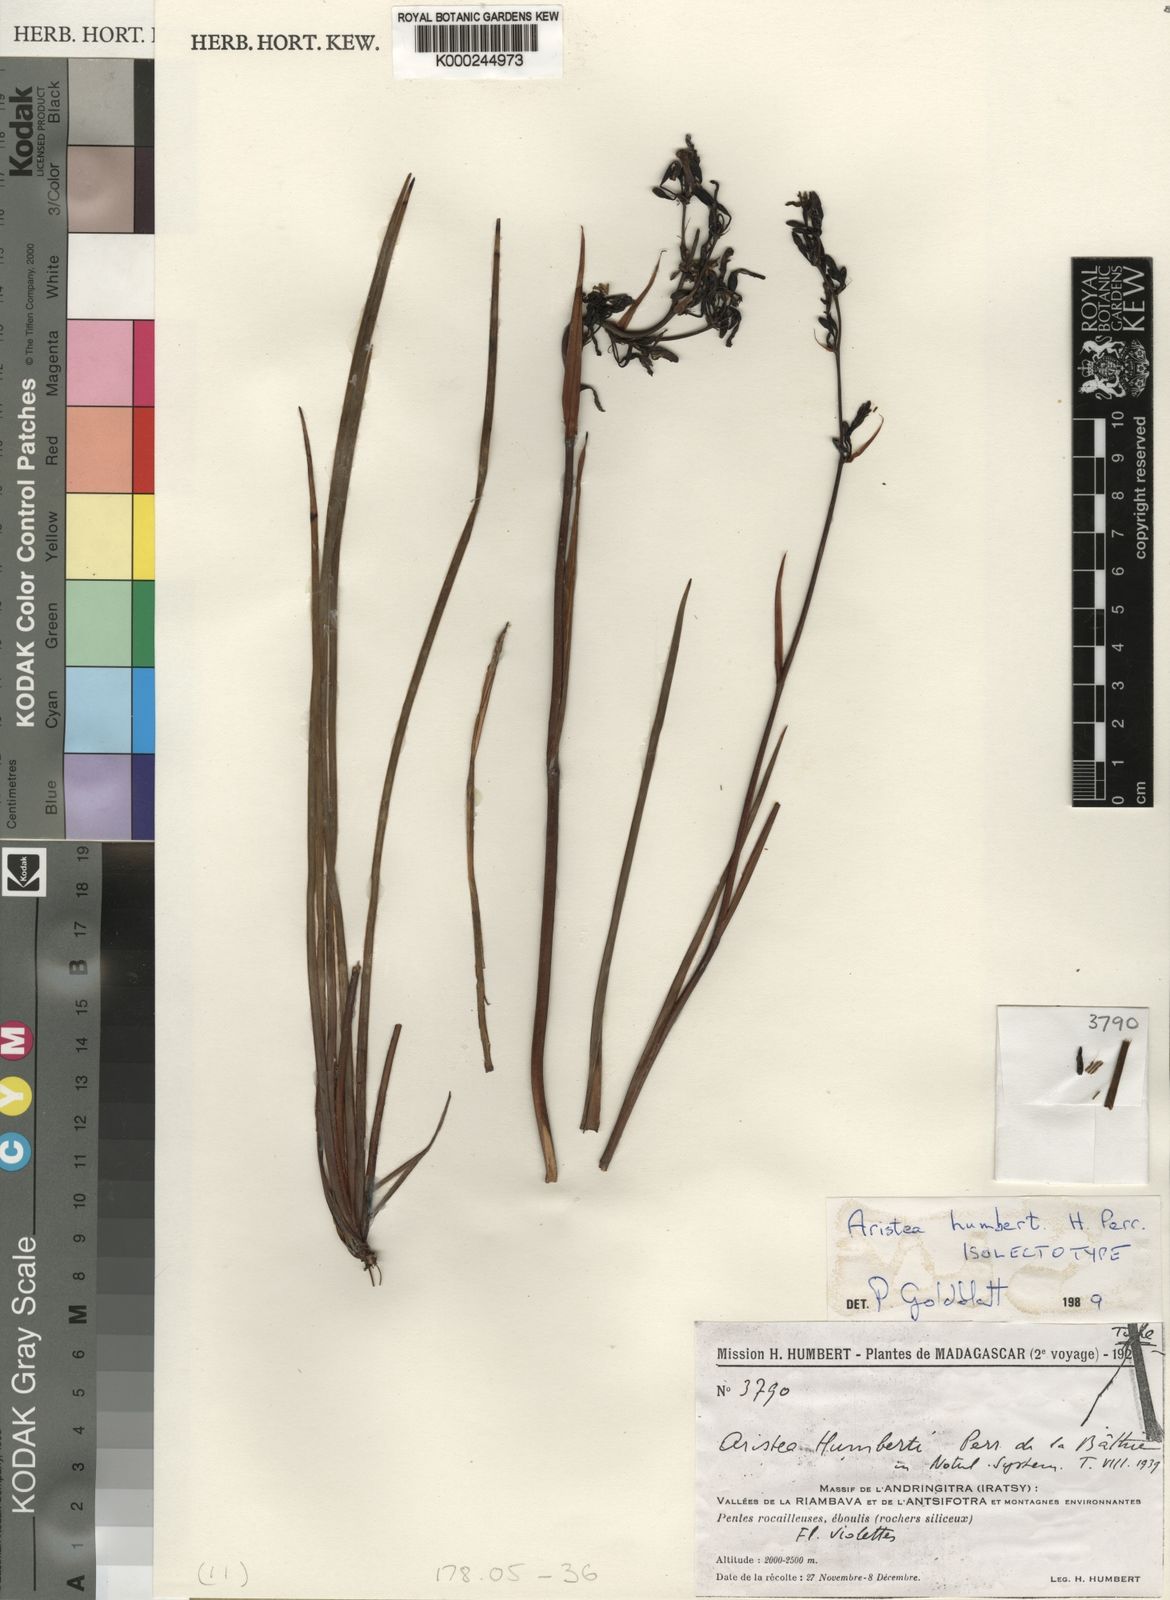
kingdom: Plantae
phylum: Tracheophyta
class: Liliopsida
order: Asparagales
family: Iridaceae
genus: Aristea
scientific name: Aristea humbertii
